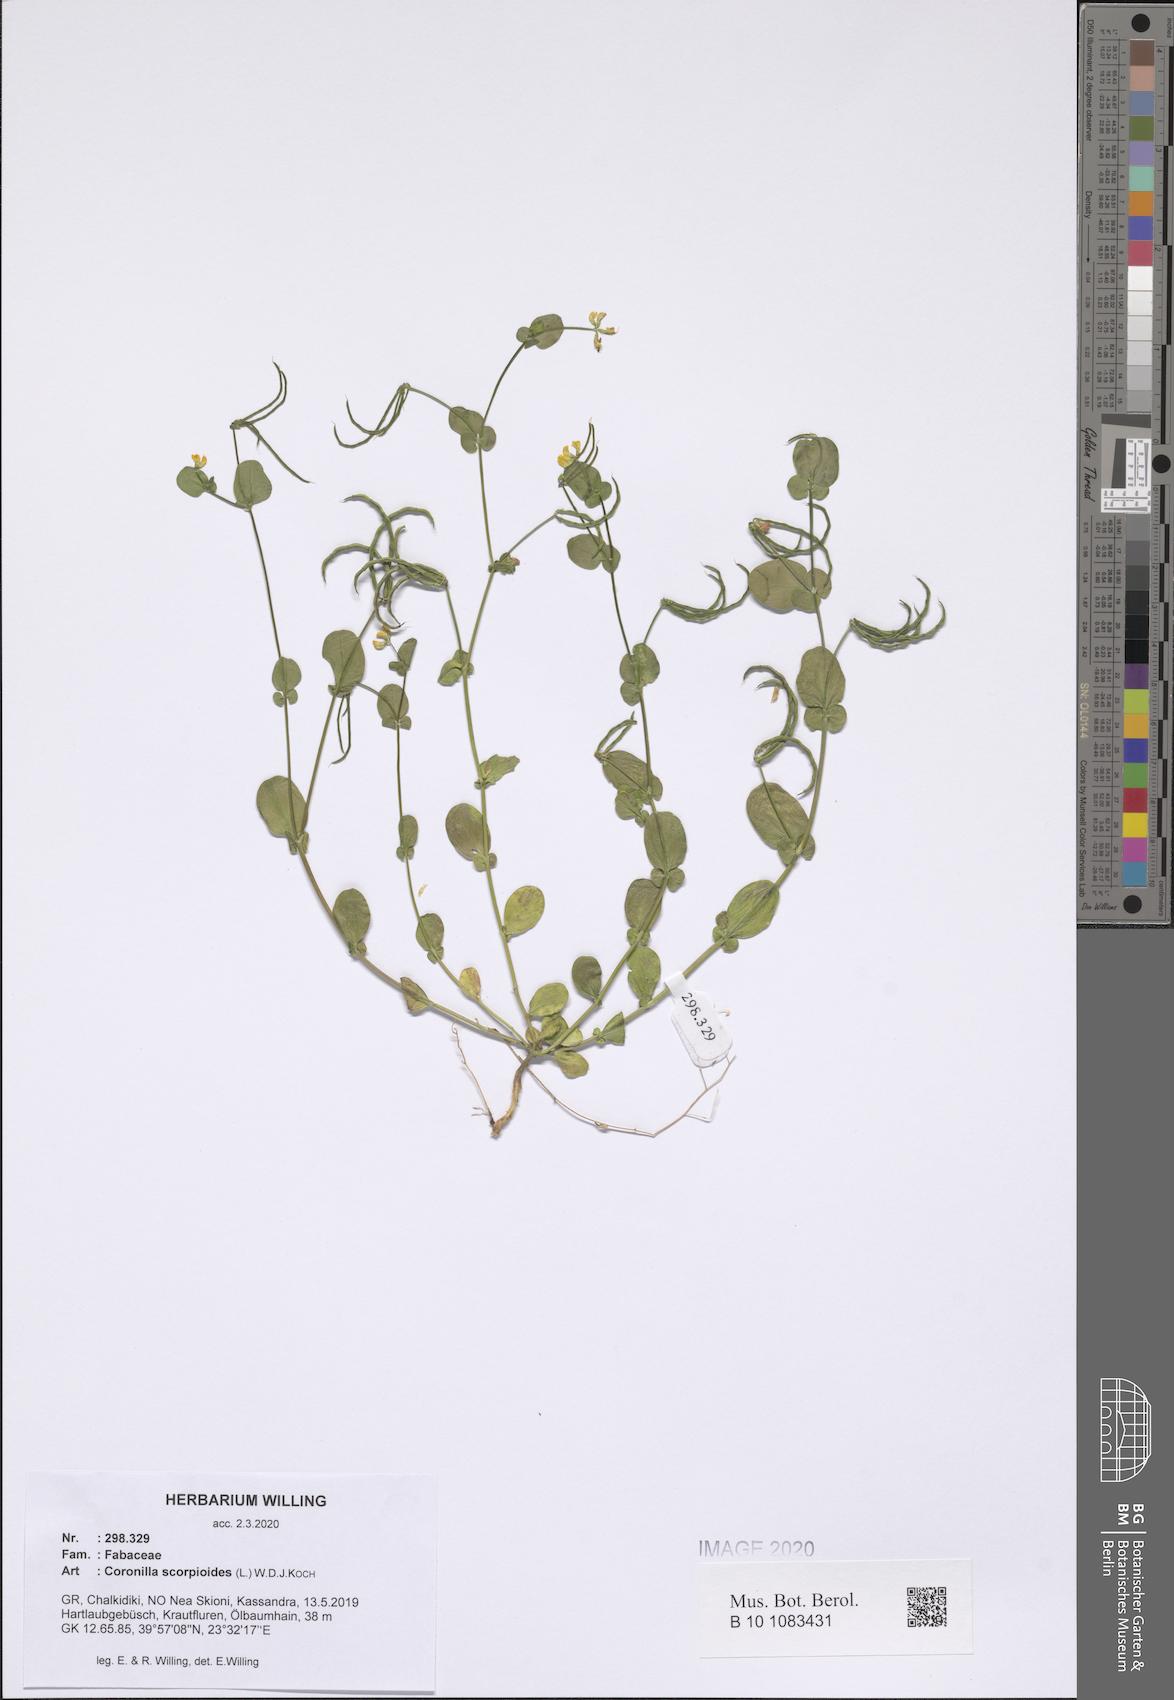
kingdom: Plantae
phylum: Tracheophyta
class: Magnoliopsida
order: Fabales
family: Fabaceae
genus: Coronilla
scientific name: Coronilla scorpioides
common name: Annual scorpion-vetch
